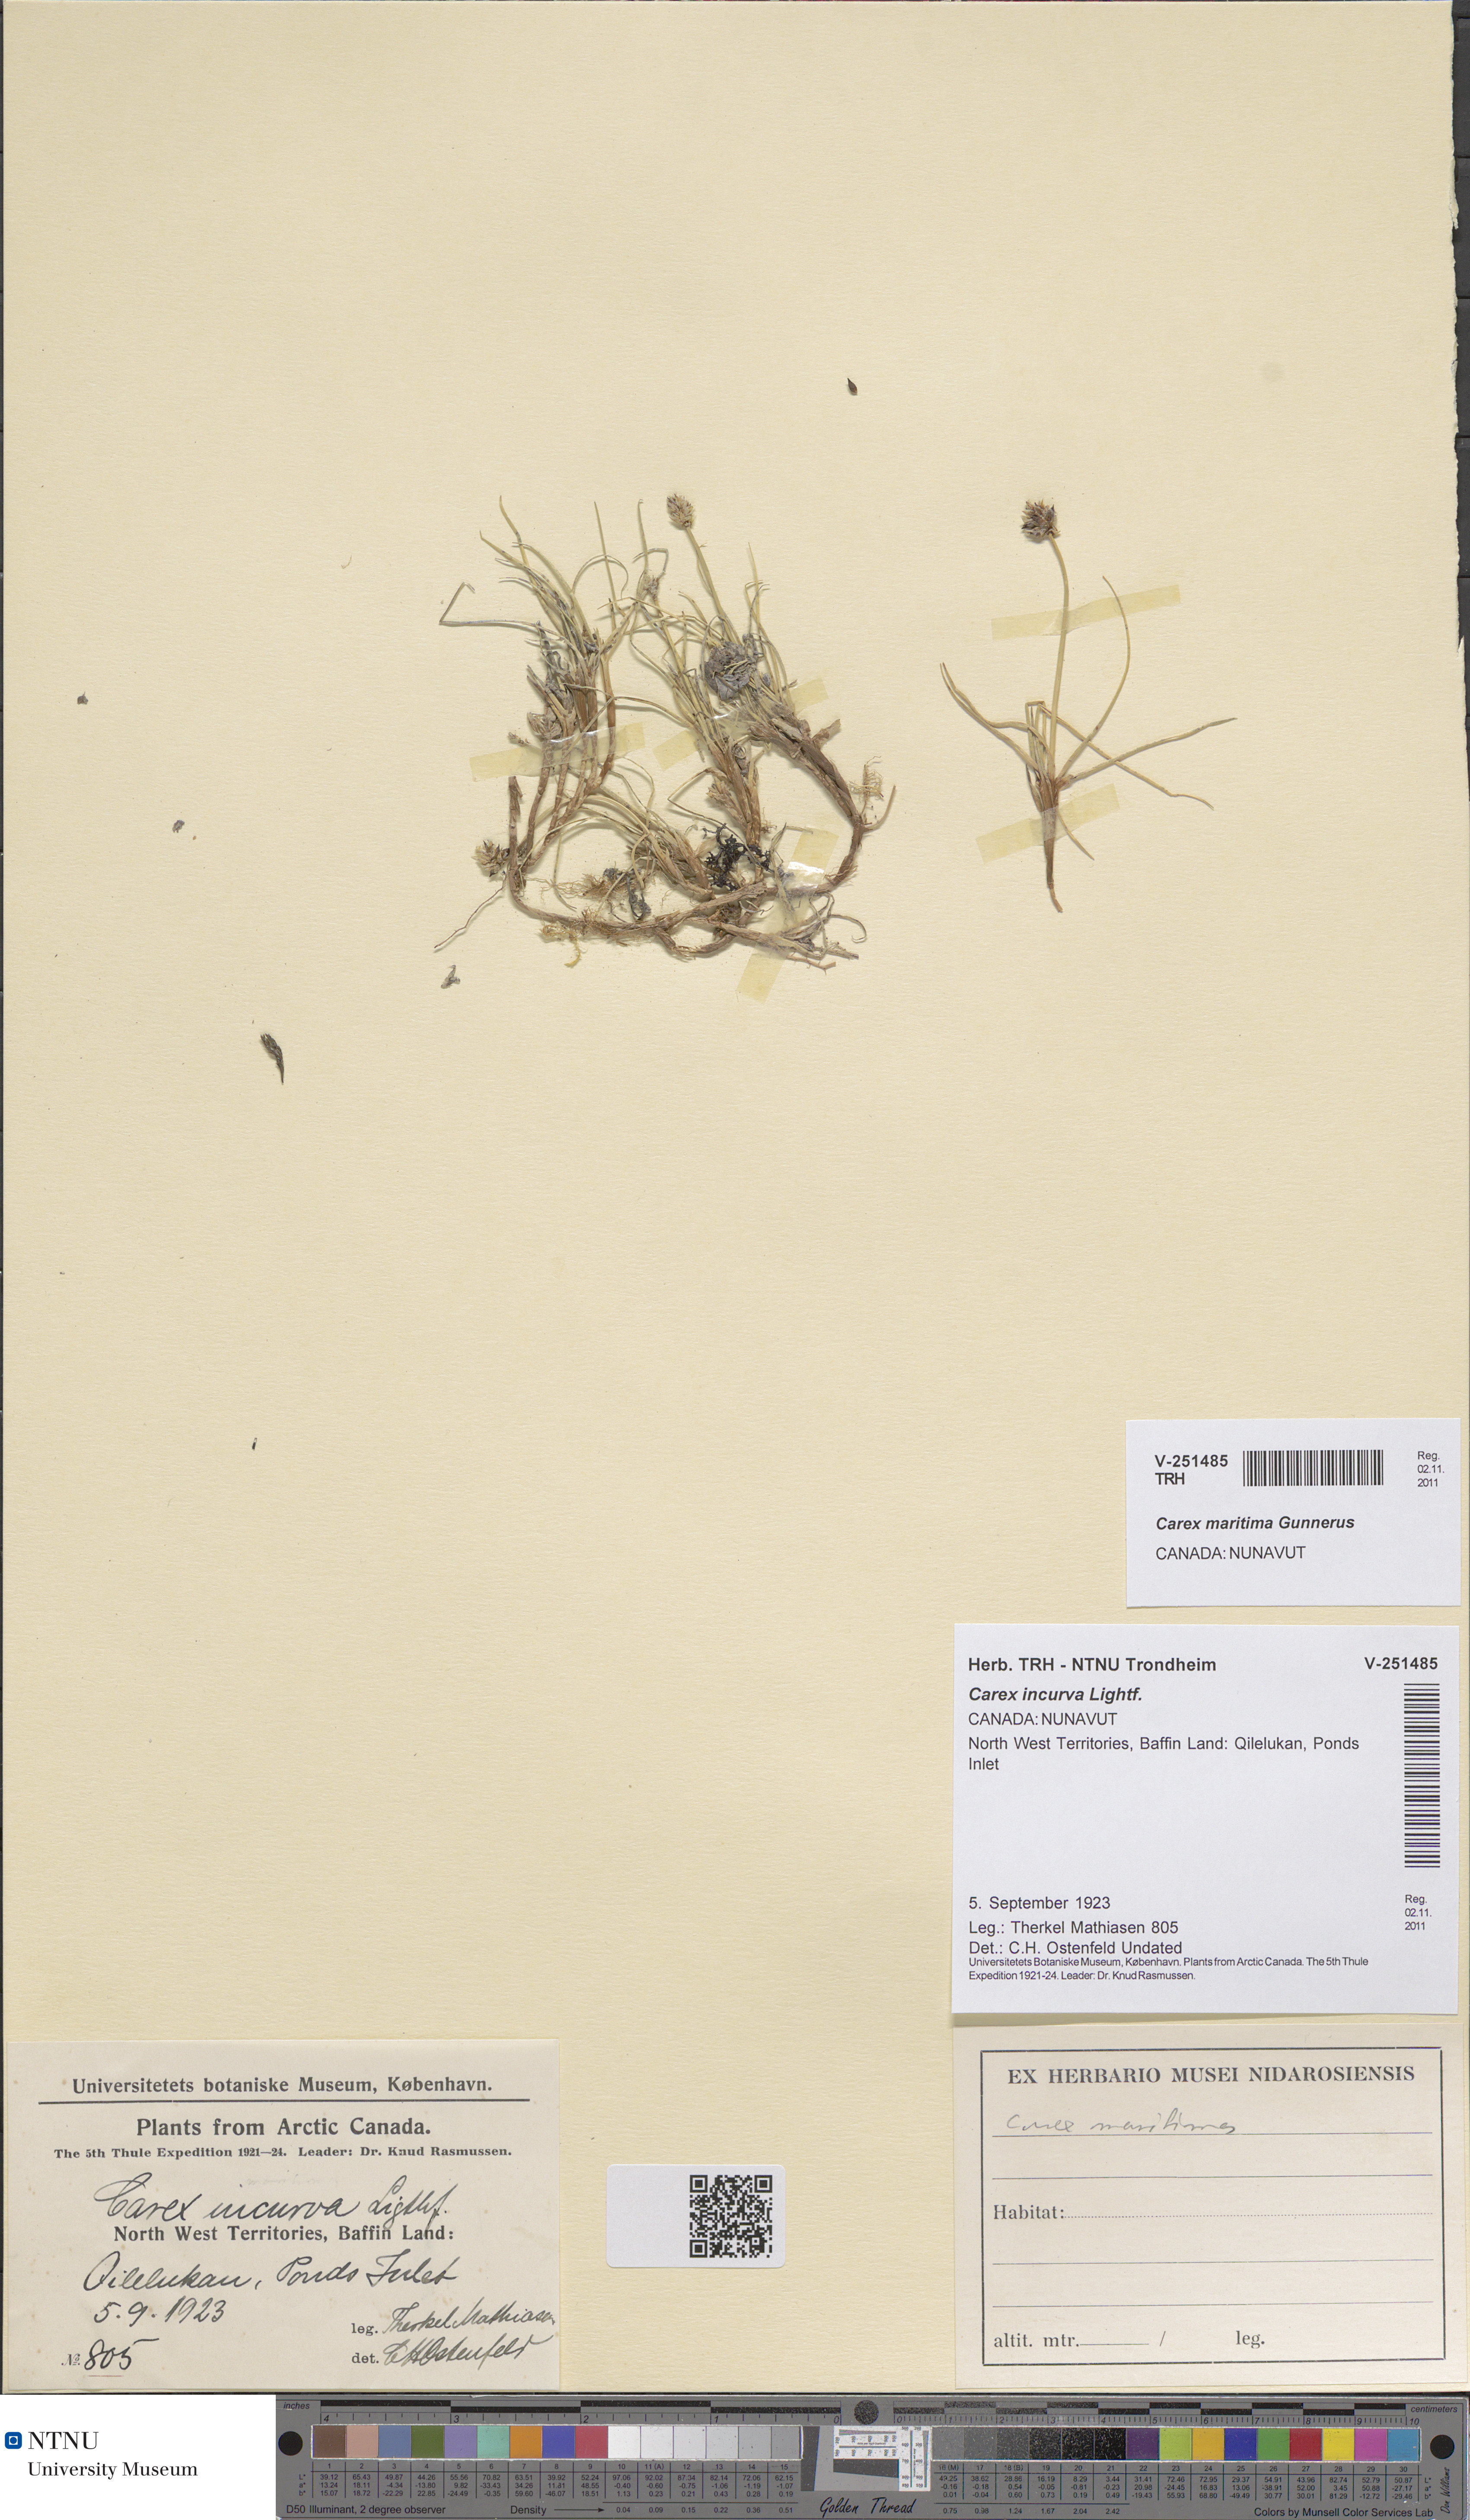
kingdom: Plantae
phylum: Tracheophyta
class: Liliopsida
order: Poales
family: Cyperaceae
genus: Carex
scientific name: Carex maritima
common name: Curved sedge
